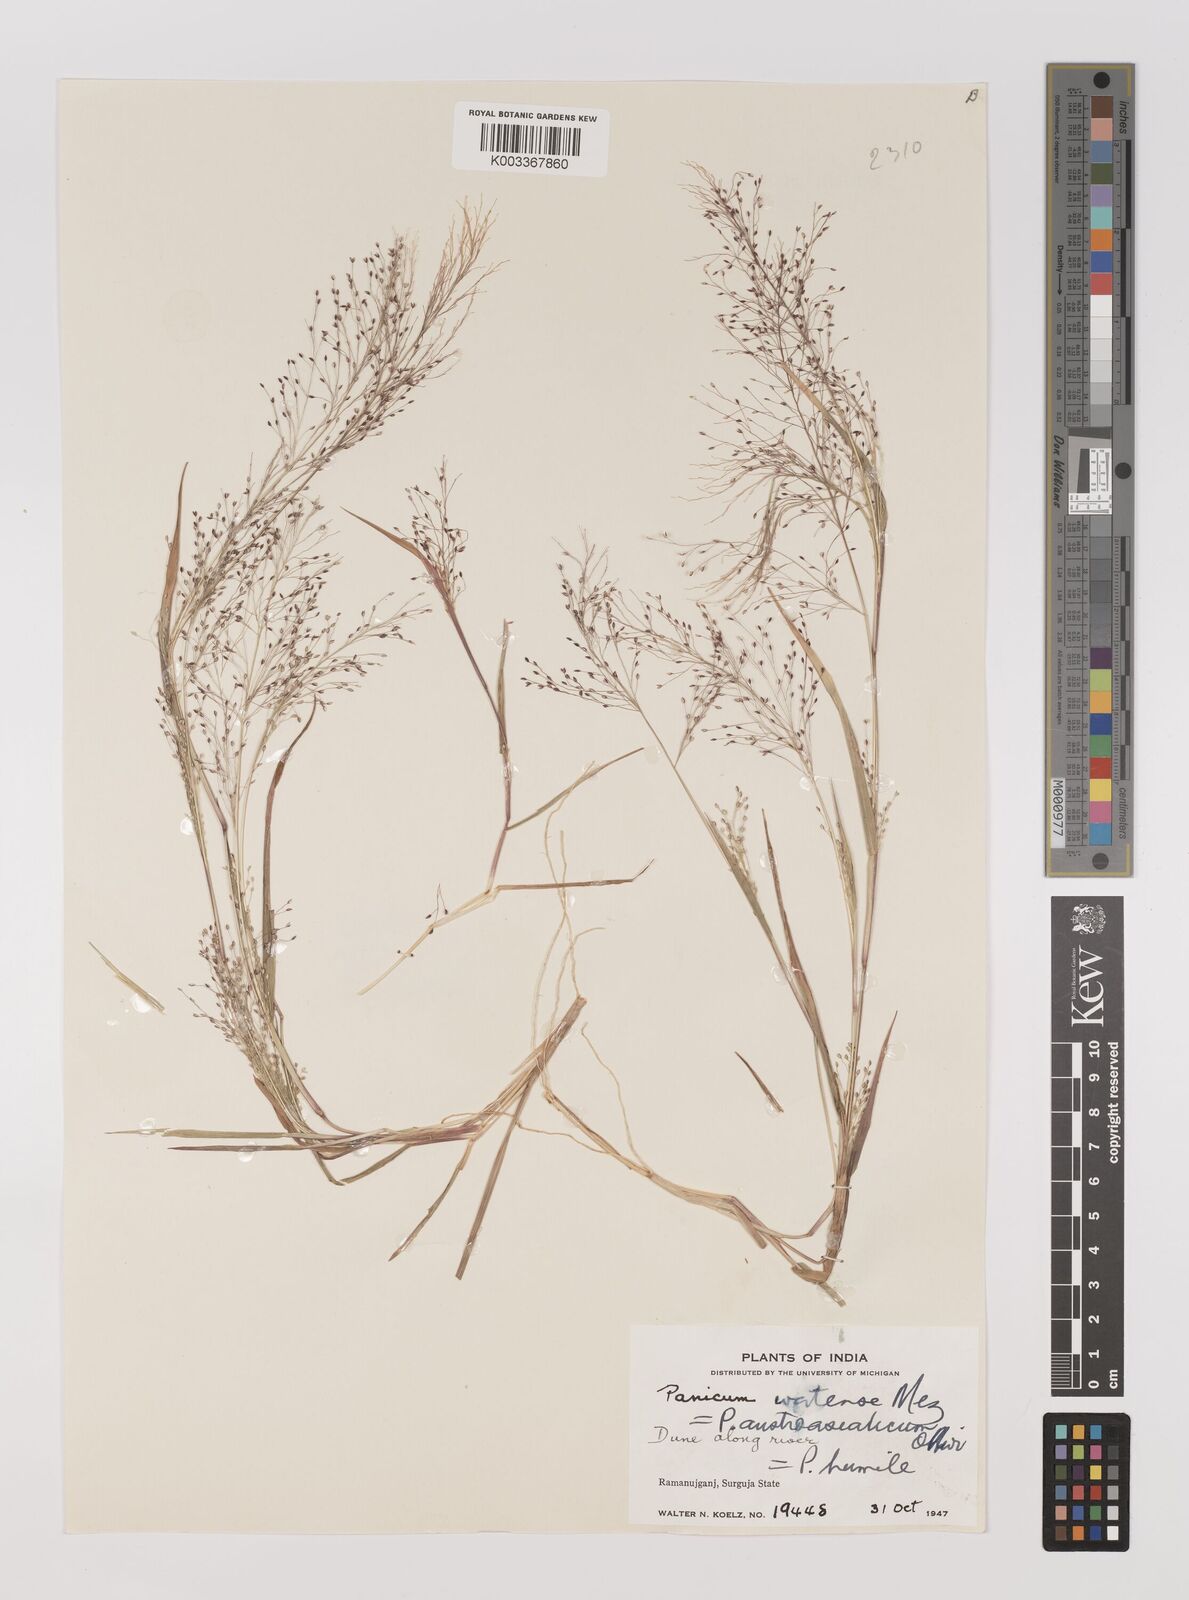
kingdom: Plantae
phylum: Tracheophyta
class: Liliopsida
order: Poales
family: Poaceae
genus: Panicum
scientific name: Panicum humile
